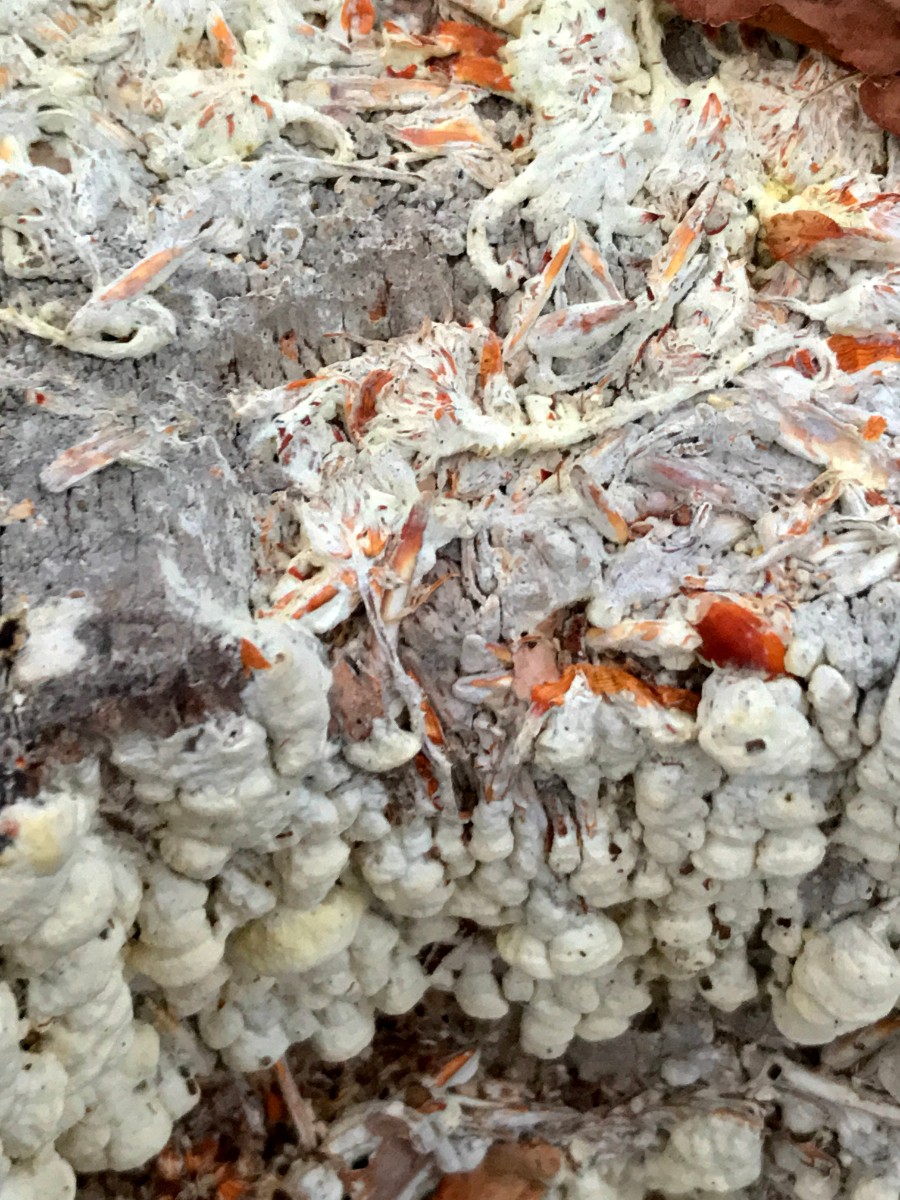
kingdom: Fungi
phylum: Basidiomycota
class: Agaricomycetes
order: Polyporales
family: Fomitopsidaceae
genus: Daedalea
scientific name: Daedalea xantha
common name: gul sejporesvamp
